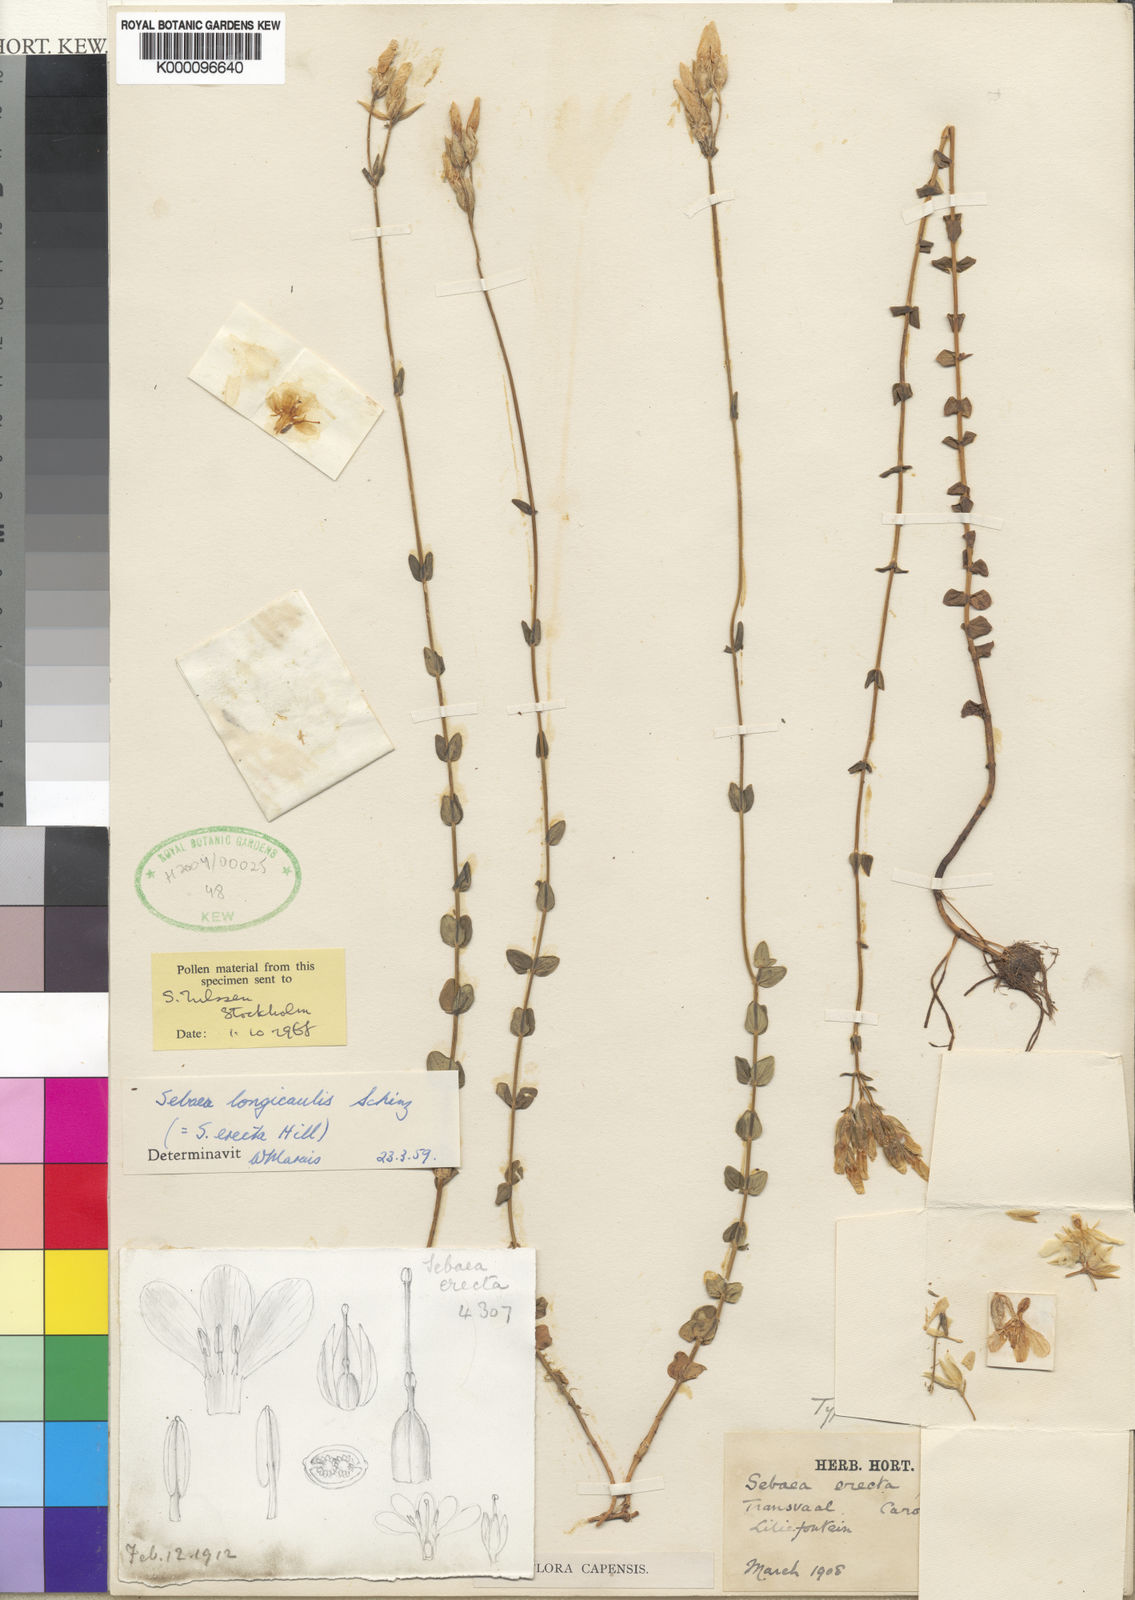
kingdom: Plantae
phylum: Tracheophyta
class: Magnoliopsida
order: Gentianales
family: Gentianaceae
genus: Sebaea
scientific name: Sebaea longicaulis
